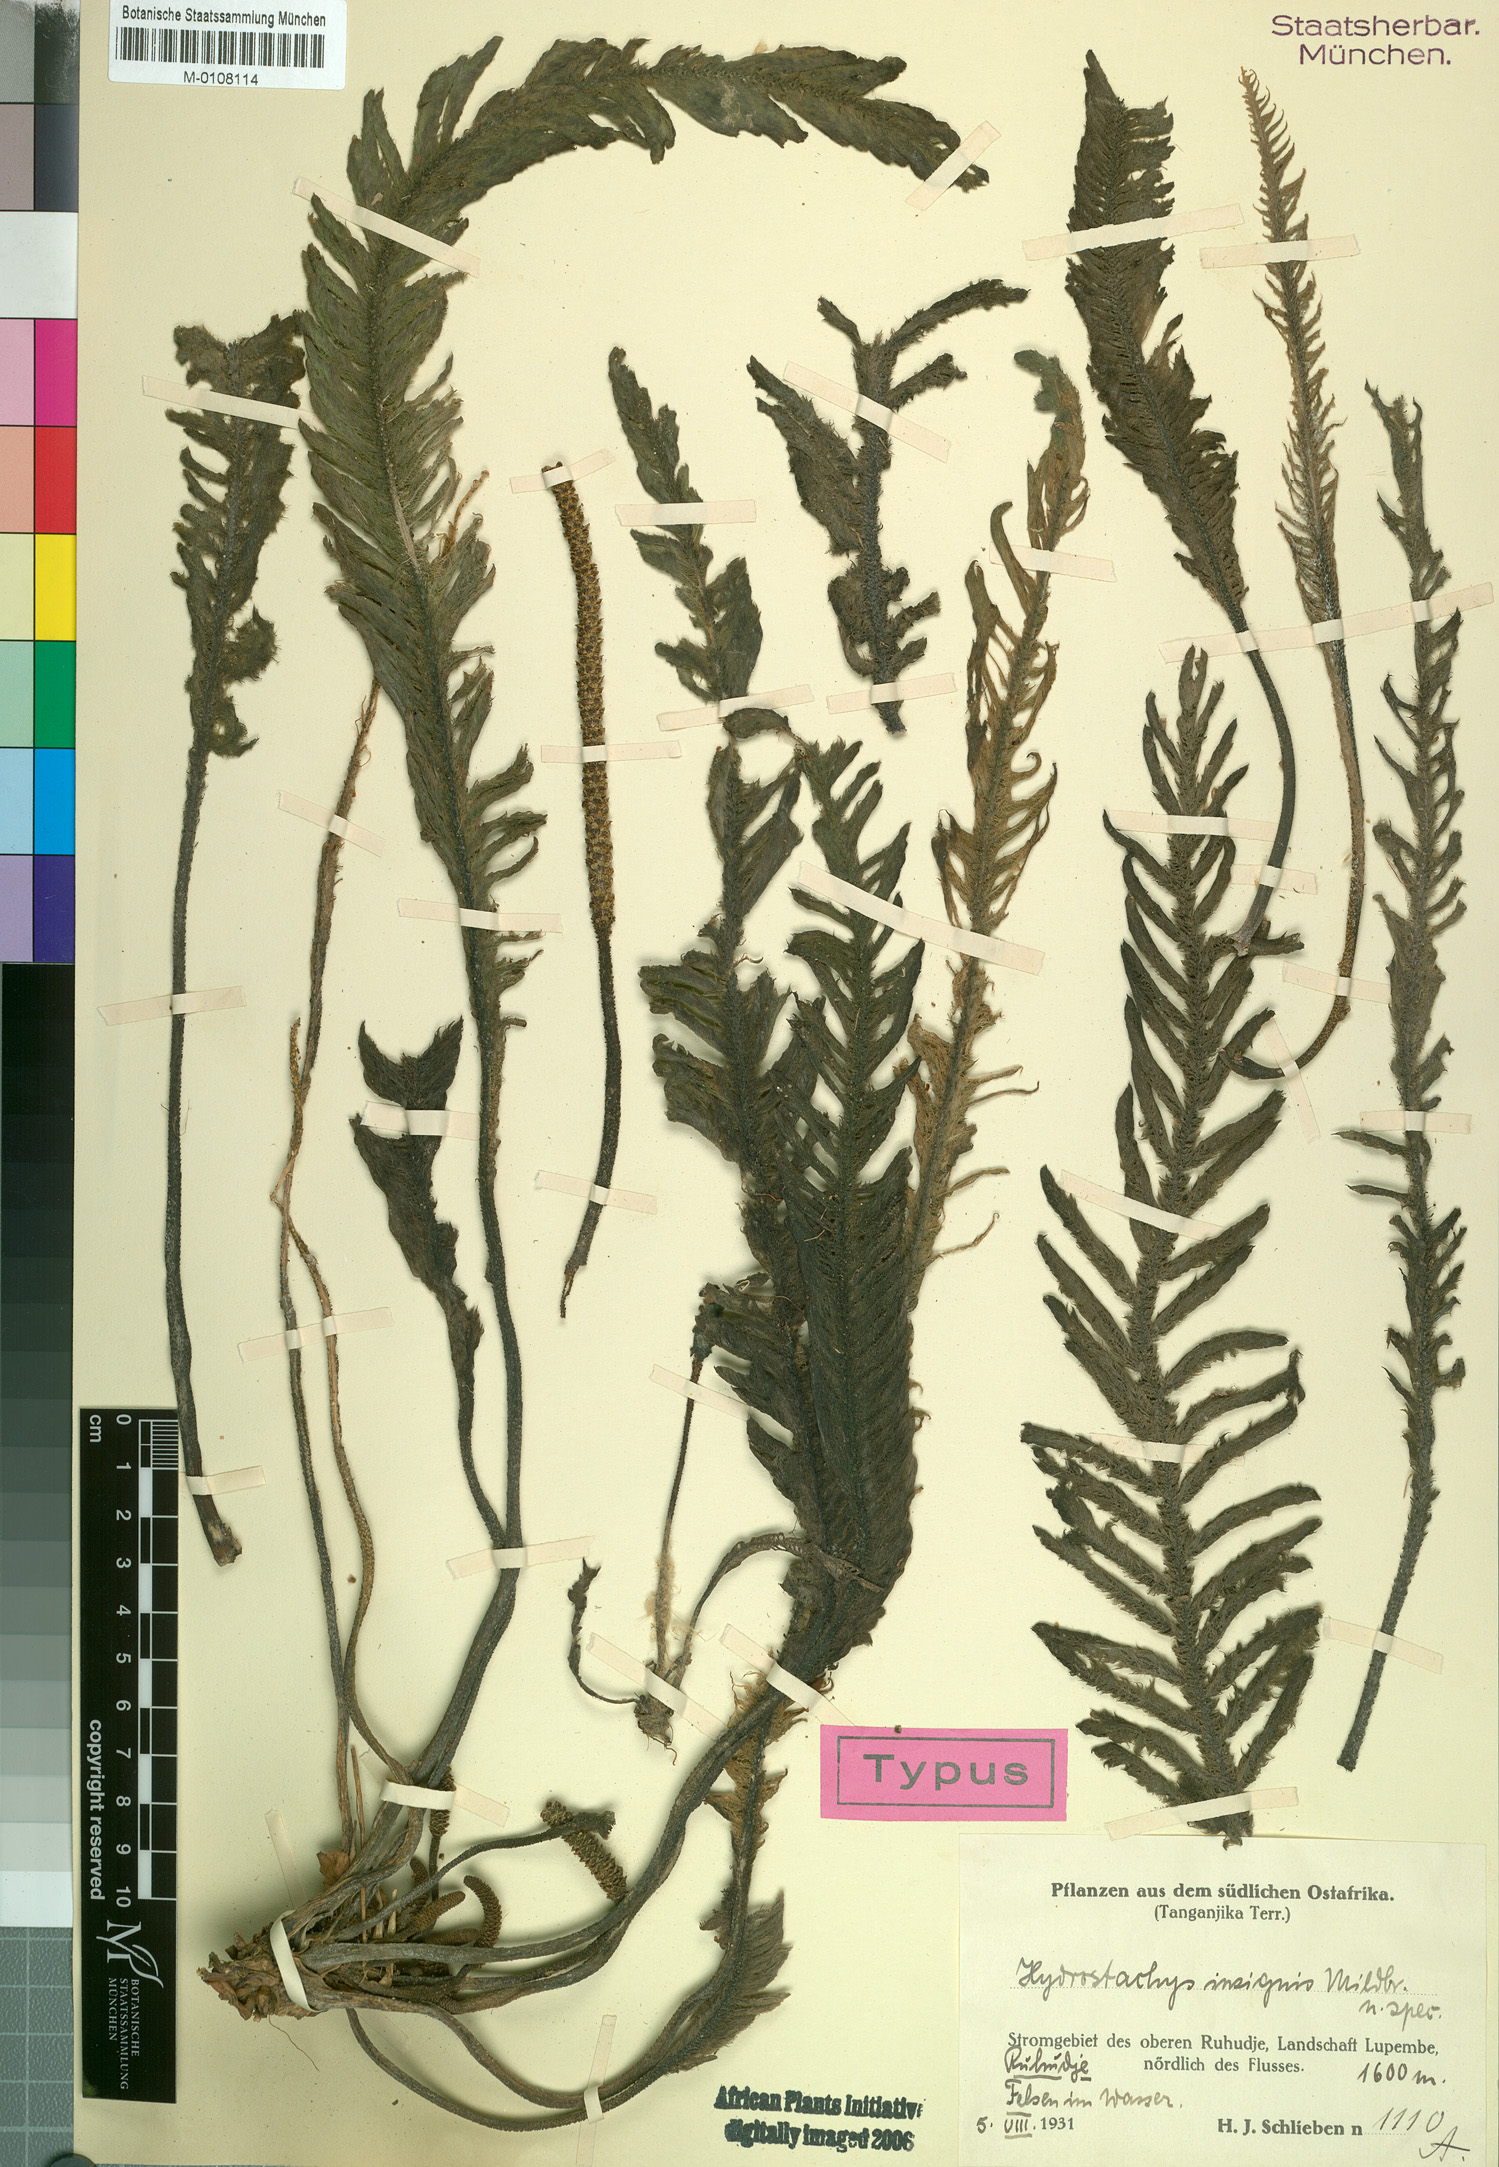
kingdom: Plantae
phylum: Tracheophyta
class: Magnoliopsida
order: Cornales
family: Hydrostachyaceae
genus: Hydrostachys
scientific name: Hydrostachys insignis
